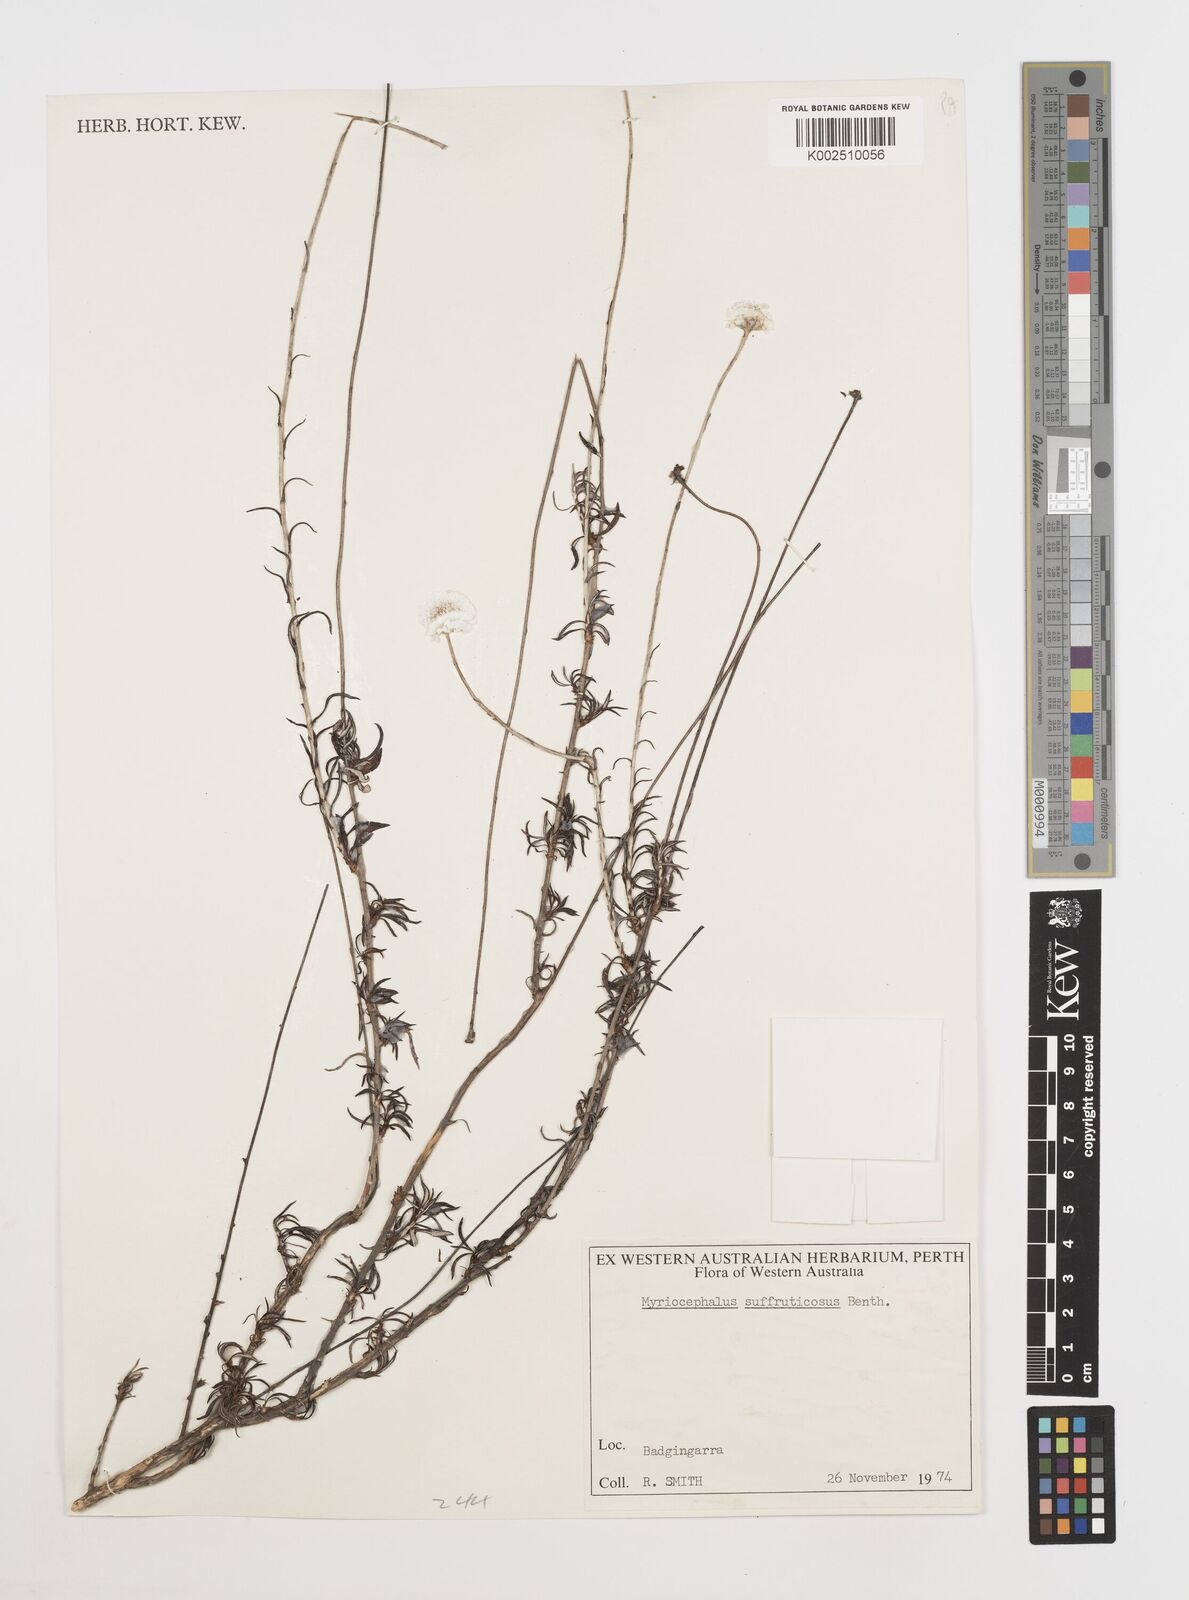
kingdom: Plantae
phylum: Tracheophyta
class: Magnoliopsida
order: Asterales
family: Asteraceae
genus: Rhetinocarpha
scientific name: Rhetinocarpha suffruticosa
